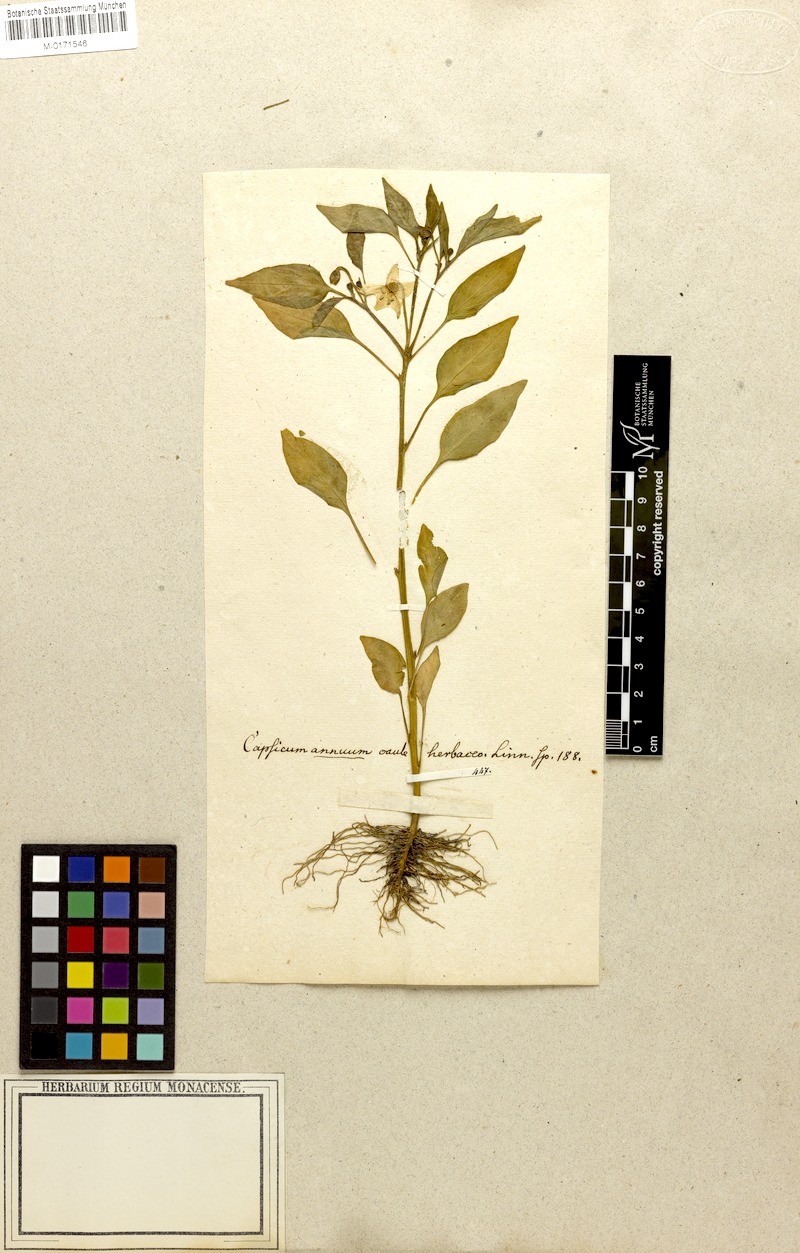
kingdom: Plantae
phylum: Tracheophyta
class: Magnoliopsida
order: Solanales
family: Solanaceae
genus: Capsicum
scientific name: Capsicum annuum
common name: Sweet pepper
